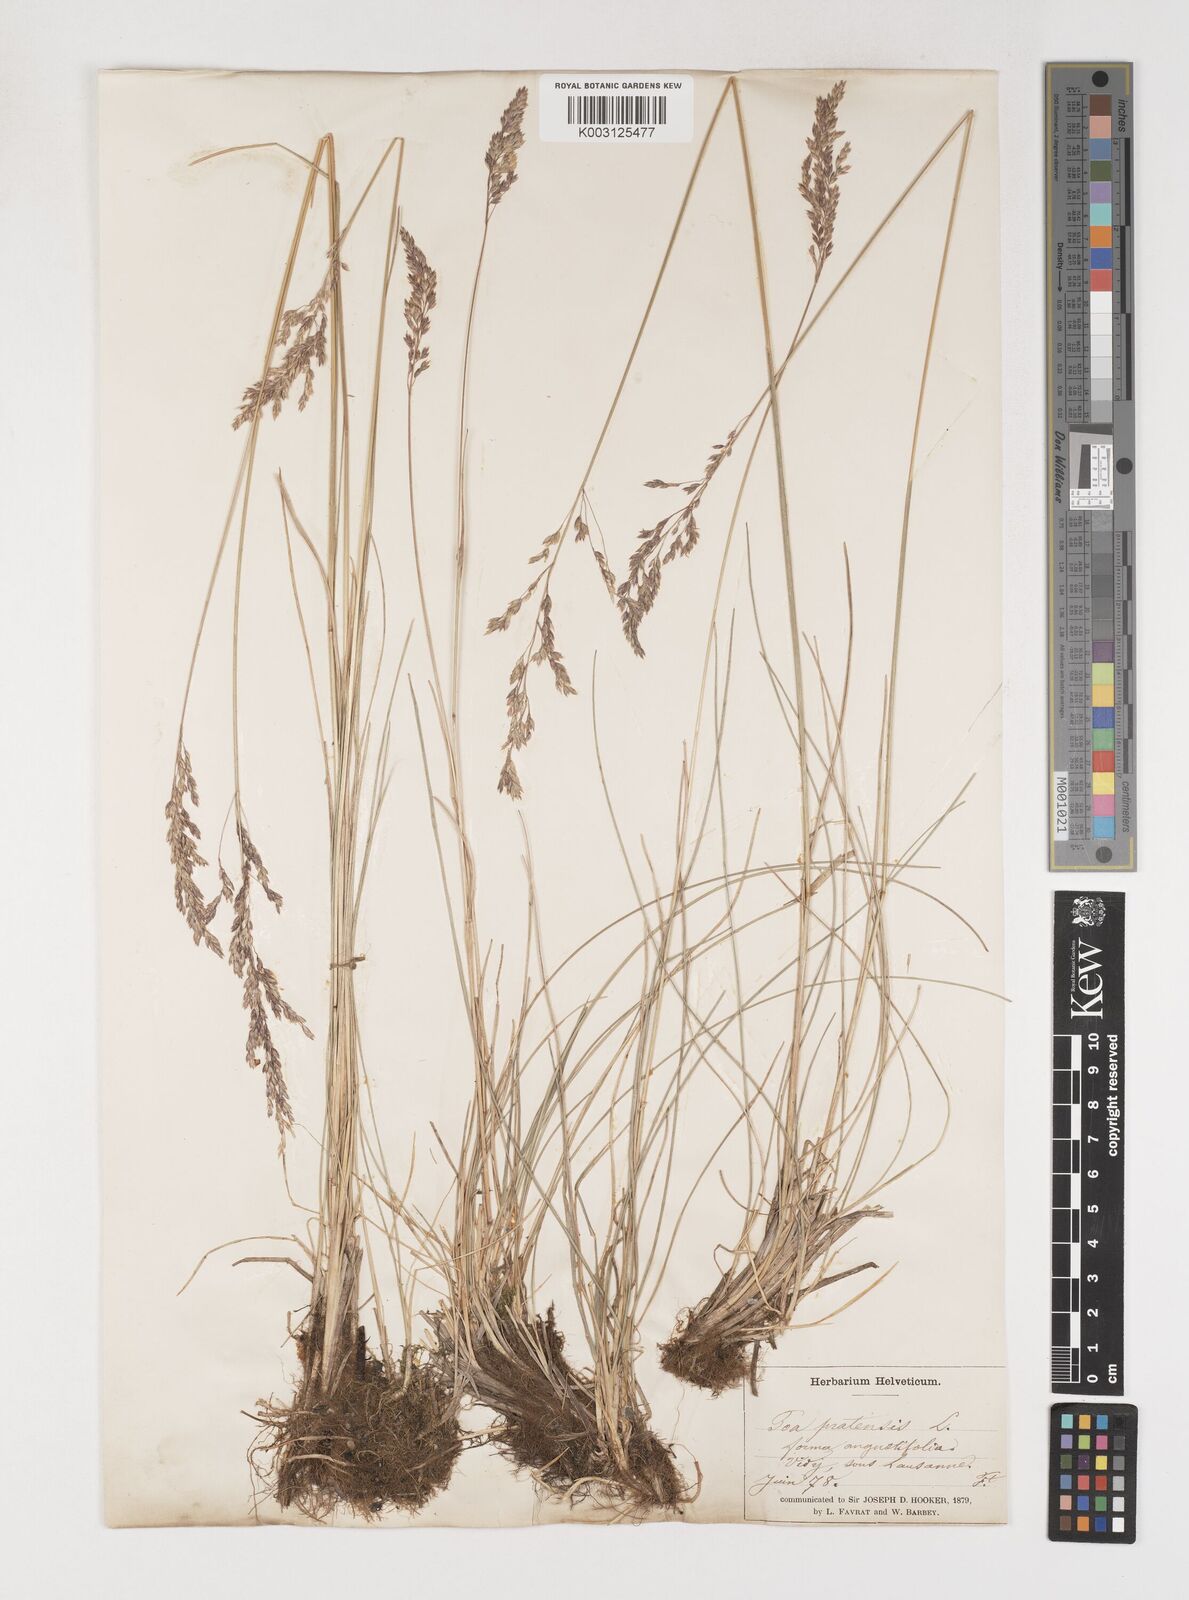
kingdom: Plantae
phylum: Tracheophyta
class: Liliopsida
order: Poales
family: Poaceae
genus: Poa
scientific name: Poa angustifolia
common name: Narrow-leaved meadow-grass
